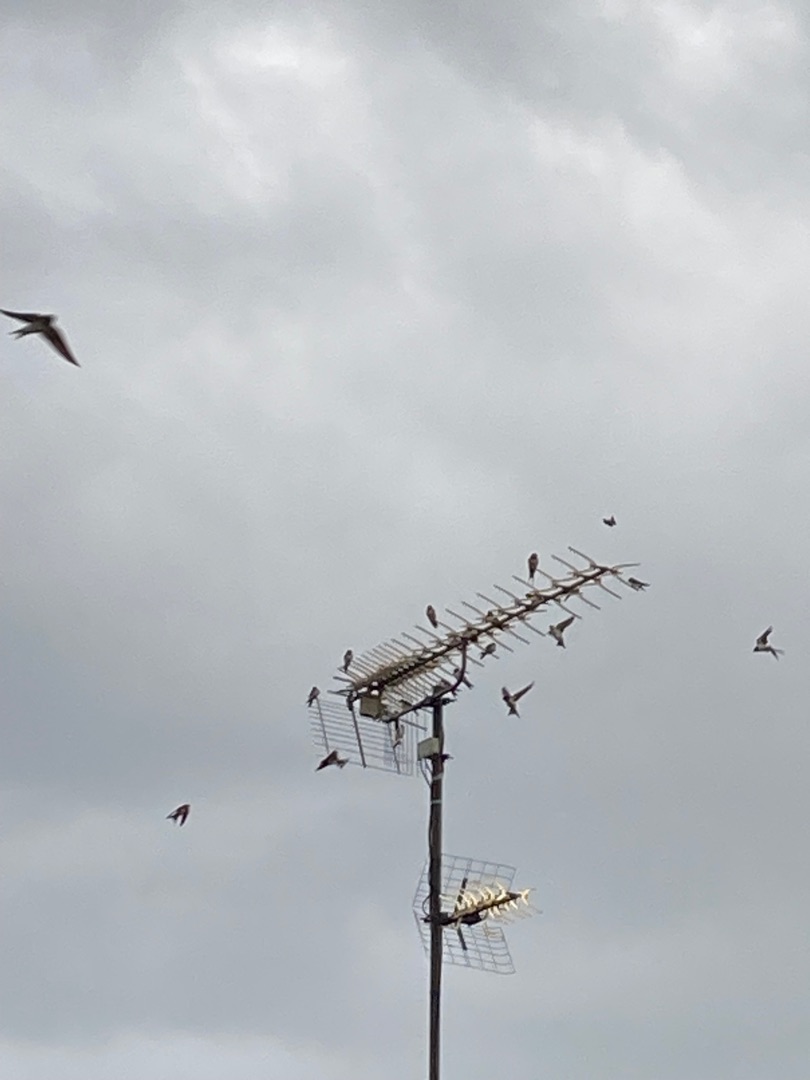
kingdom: Animalia
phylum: Chordata
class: Aves
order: Passeriformes
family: Hirundinidae
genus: Hirundo
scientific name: Hirundo rustica
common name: Landsvale
